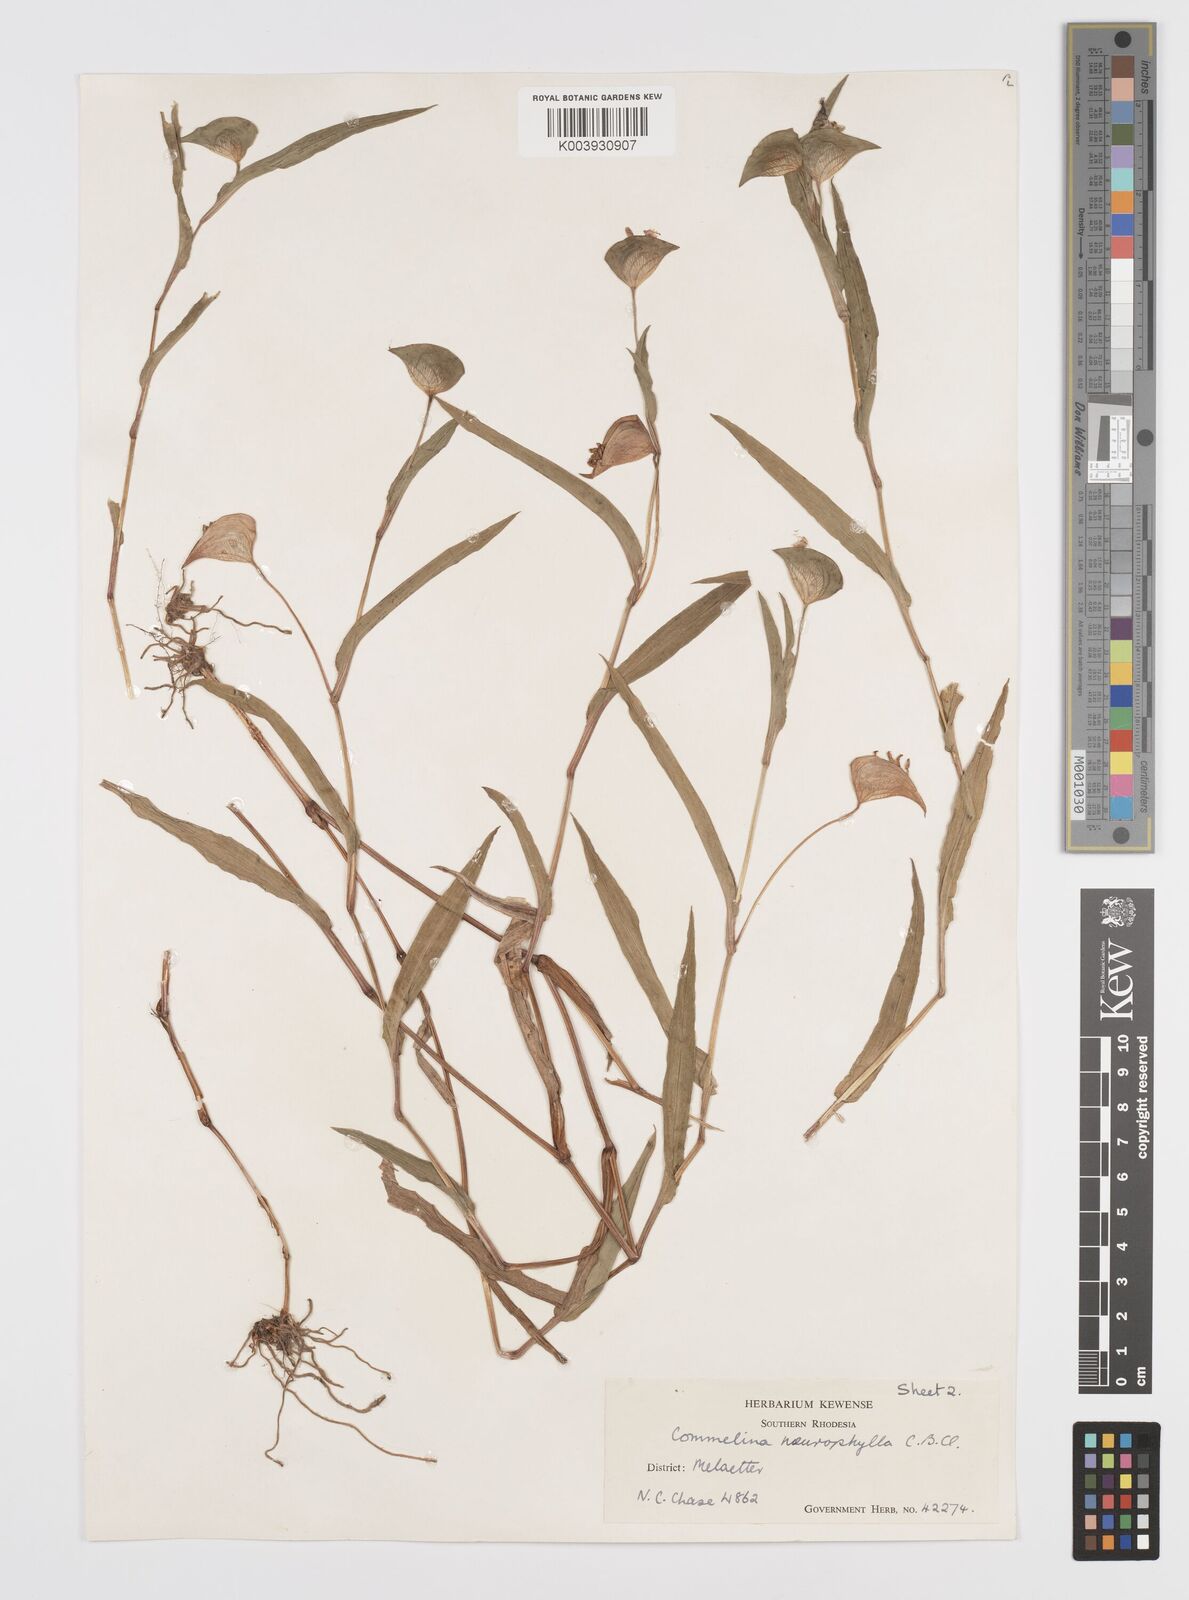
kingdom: Plantae
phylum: Tracheophyta
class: Liliopsida
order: Commelinales
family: Commelinaceae
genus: Commelina
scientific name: Commelina neurophylla
